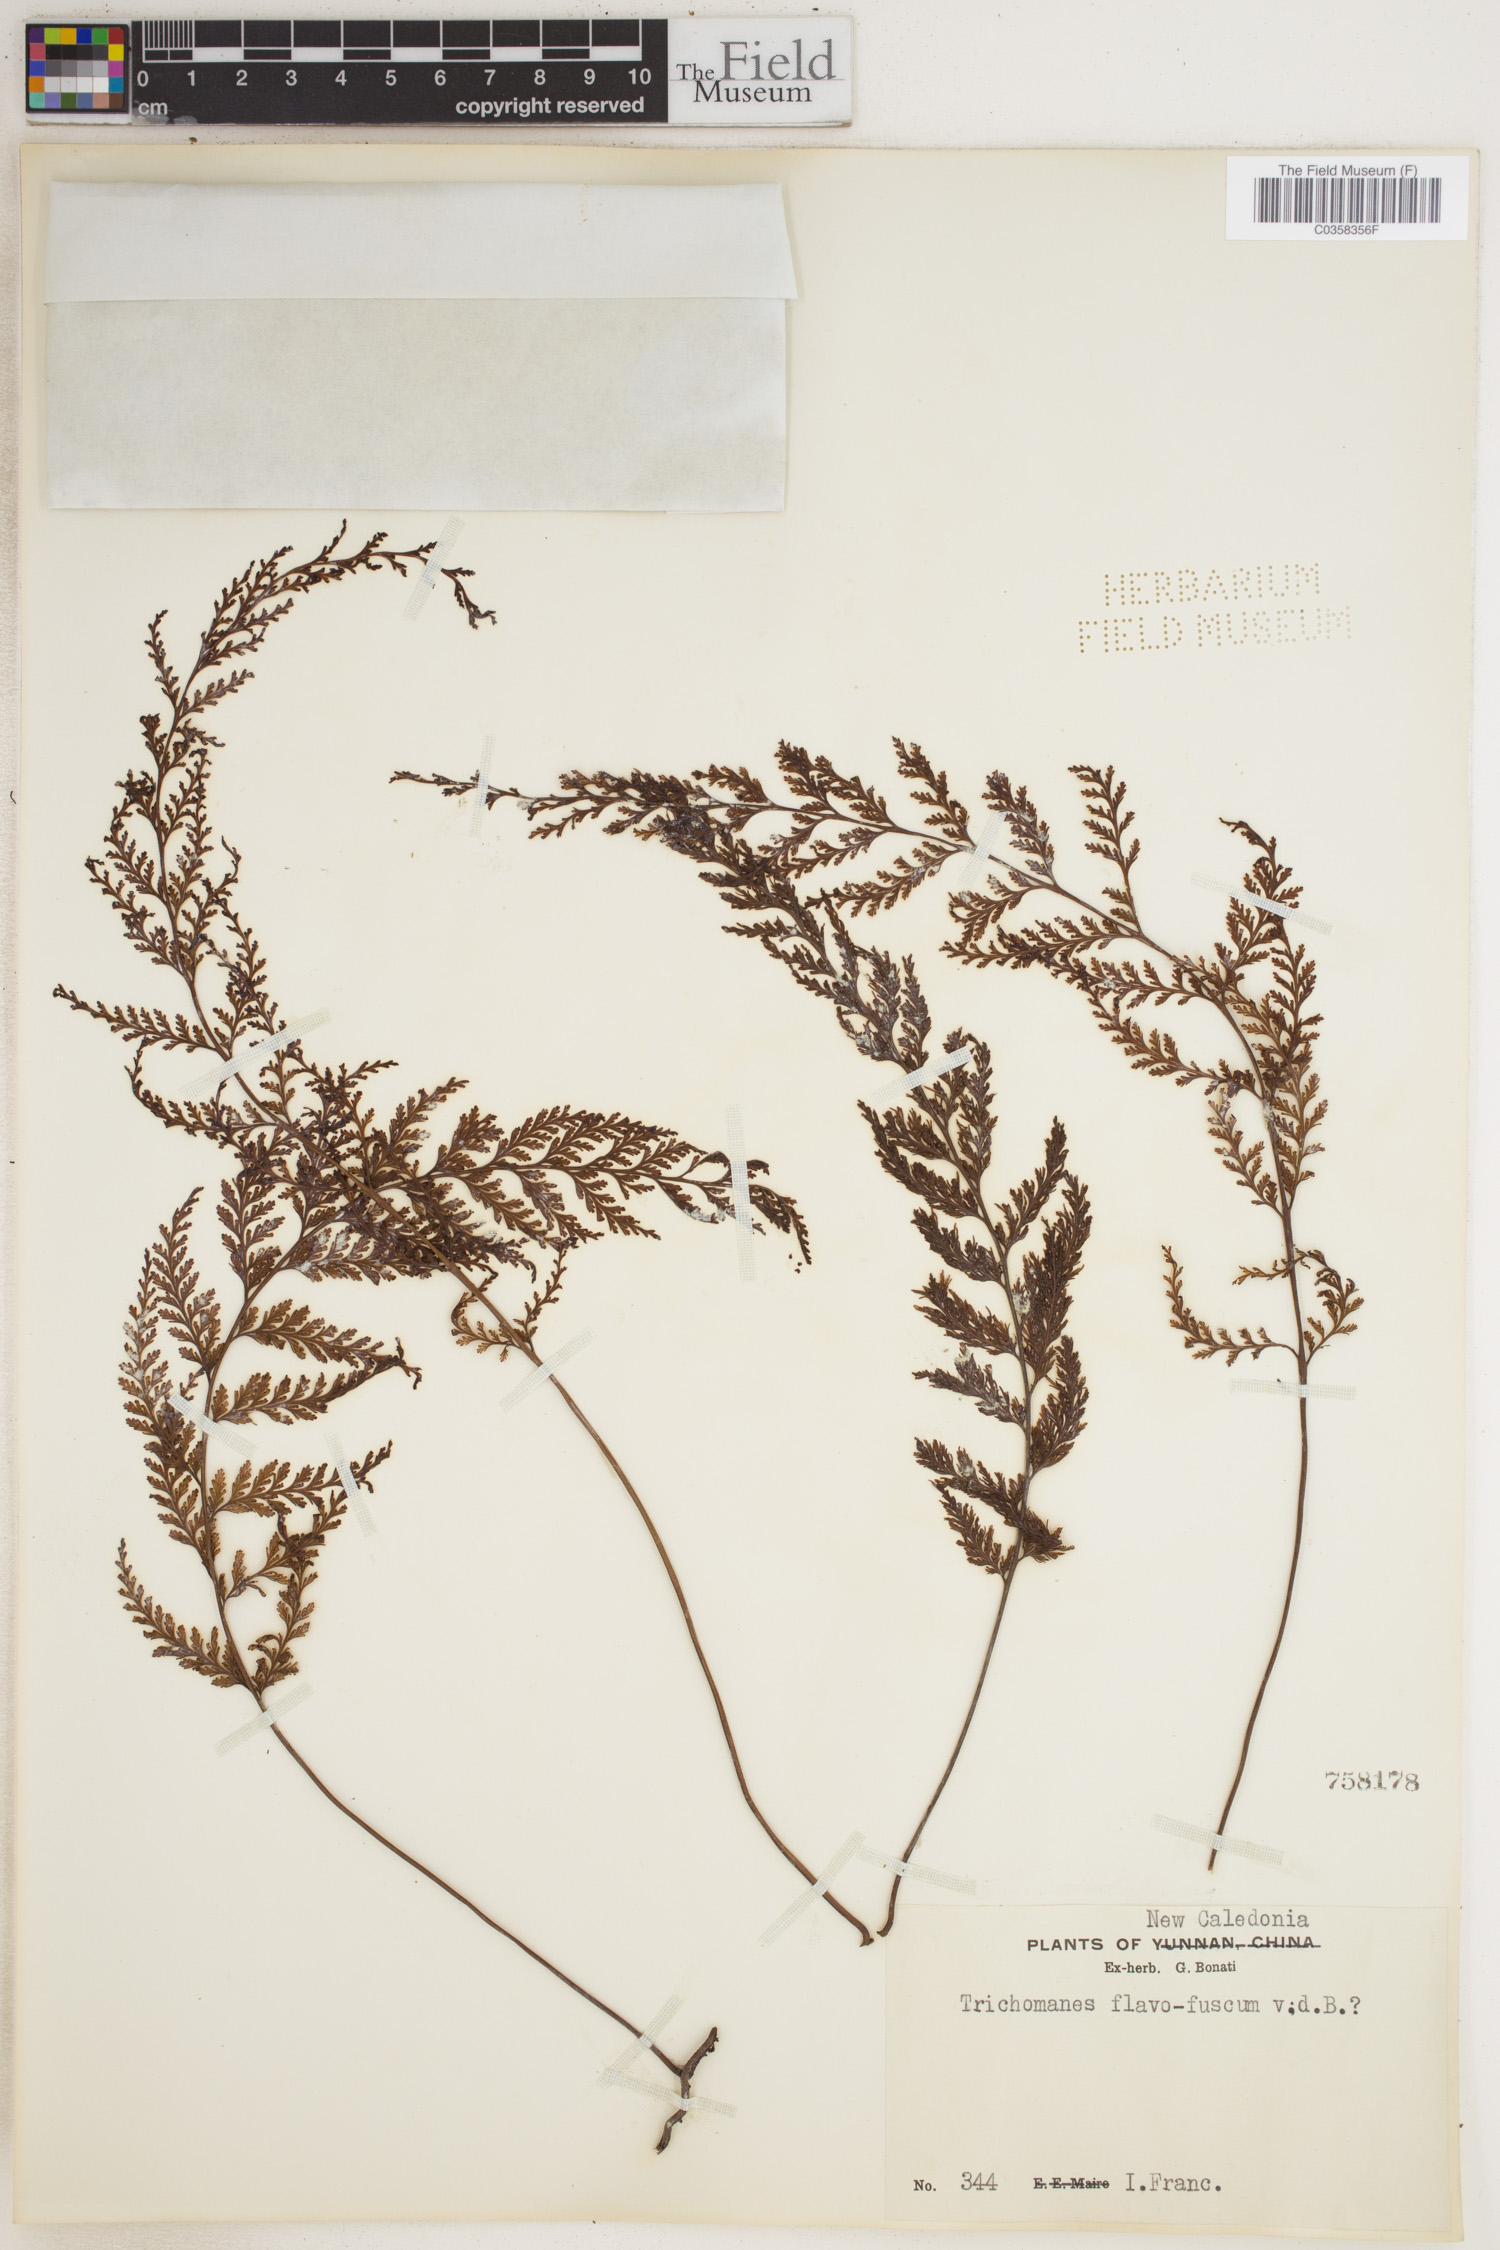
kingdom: Plantae
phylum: Tracheophyta
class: Polypodiopsida
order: Hymenophyllales
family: Hymenophyllaceae
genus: Abrodictyum
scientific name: Abrodictyum flavofuscum
